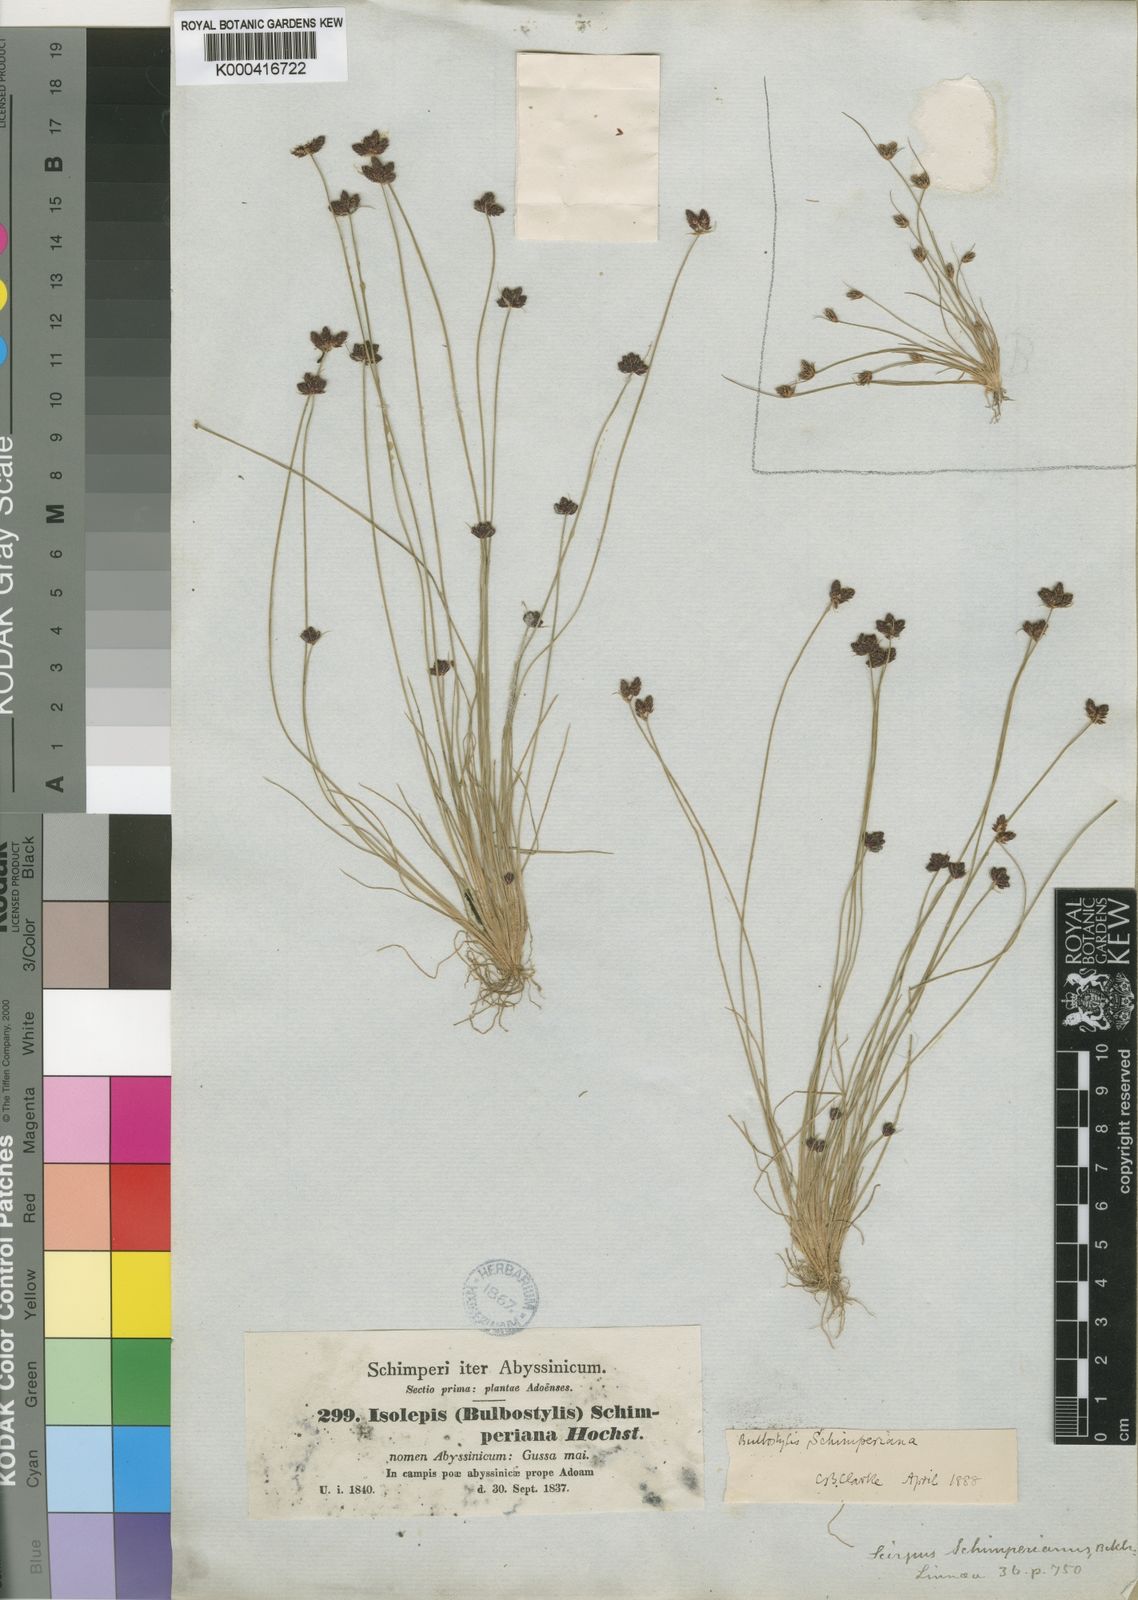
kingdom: Plantae
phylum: Tracheophyta
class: Liliopsida
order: Poales
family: Cyperaceae
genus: Bulbostylis
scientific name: Bulbostylis schimperiana
